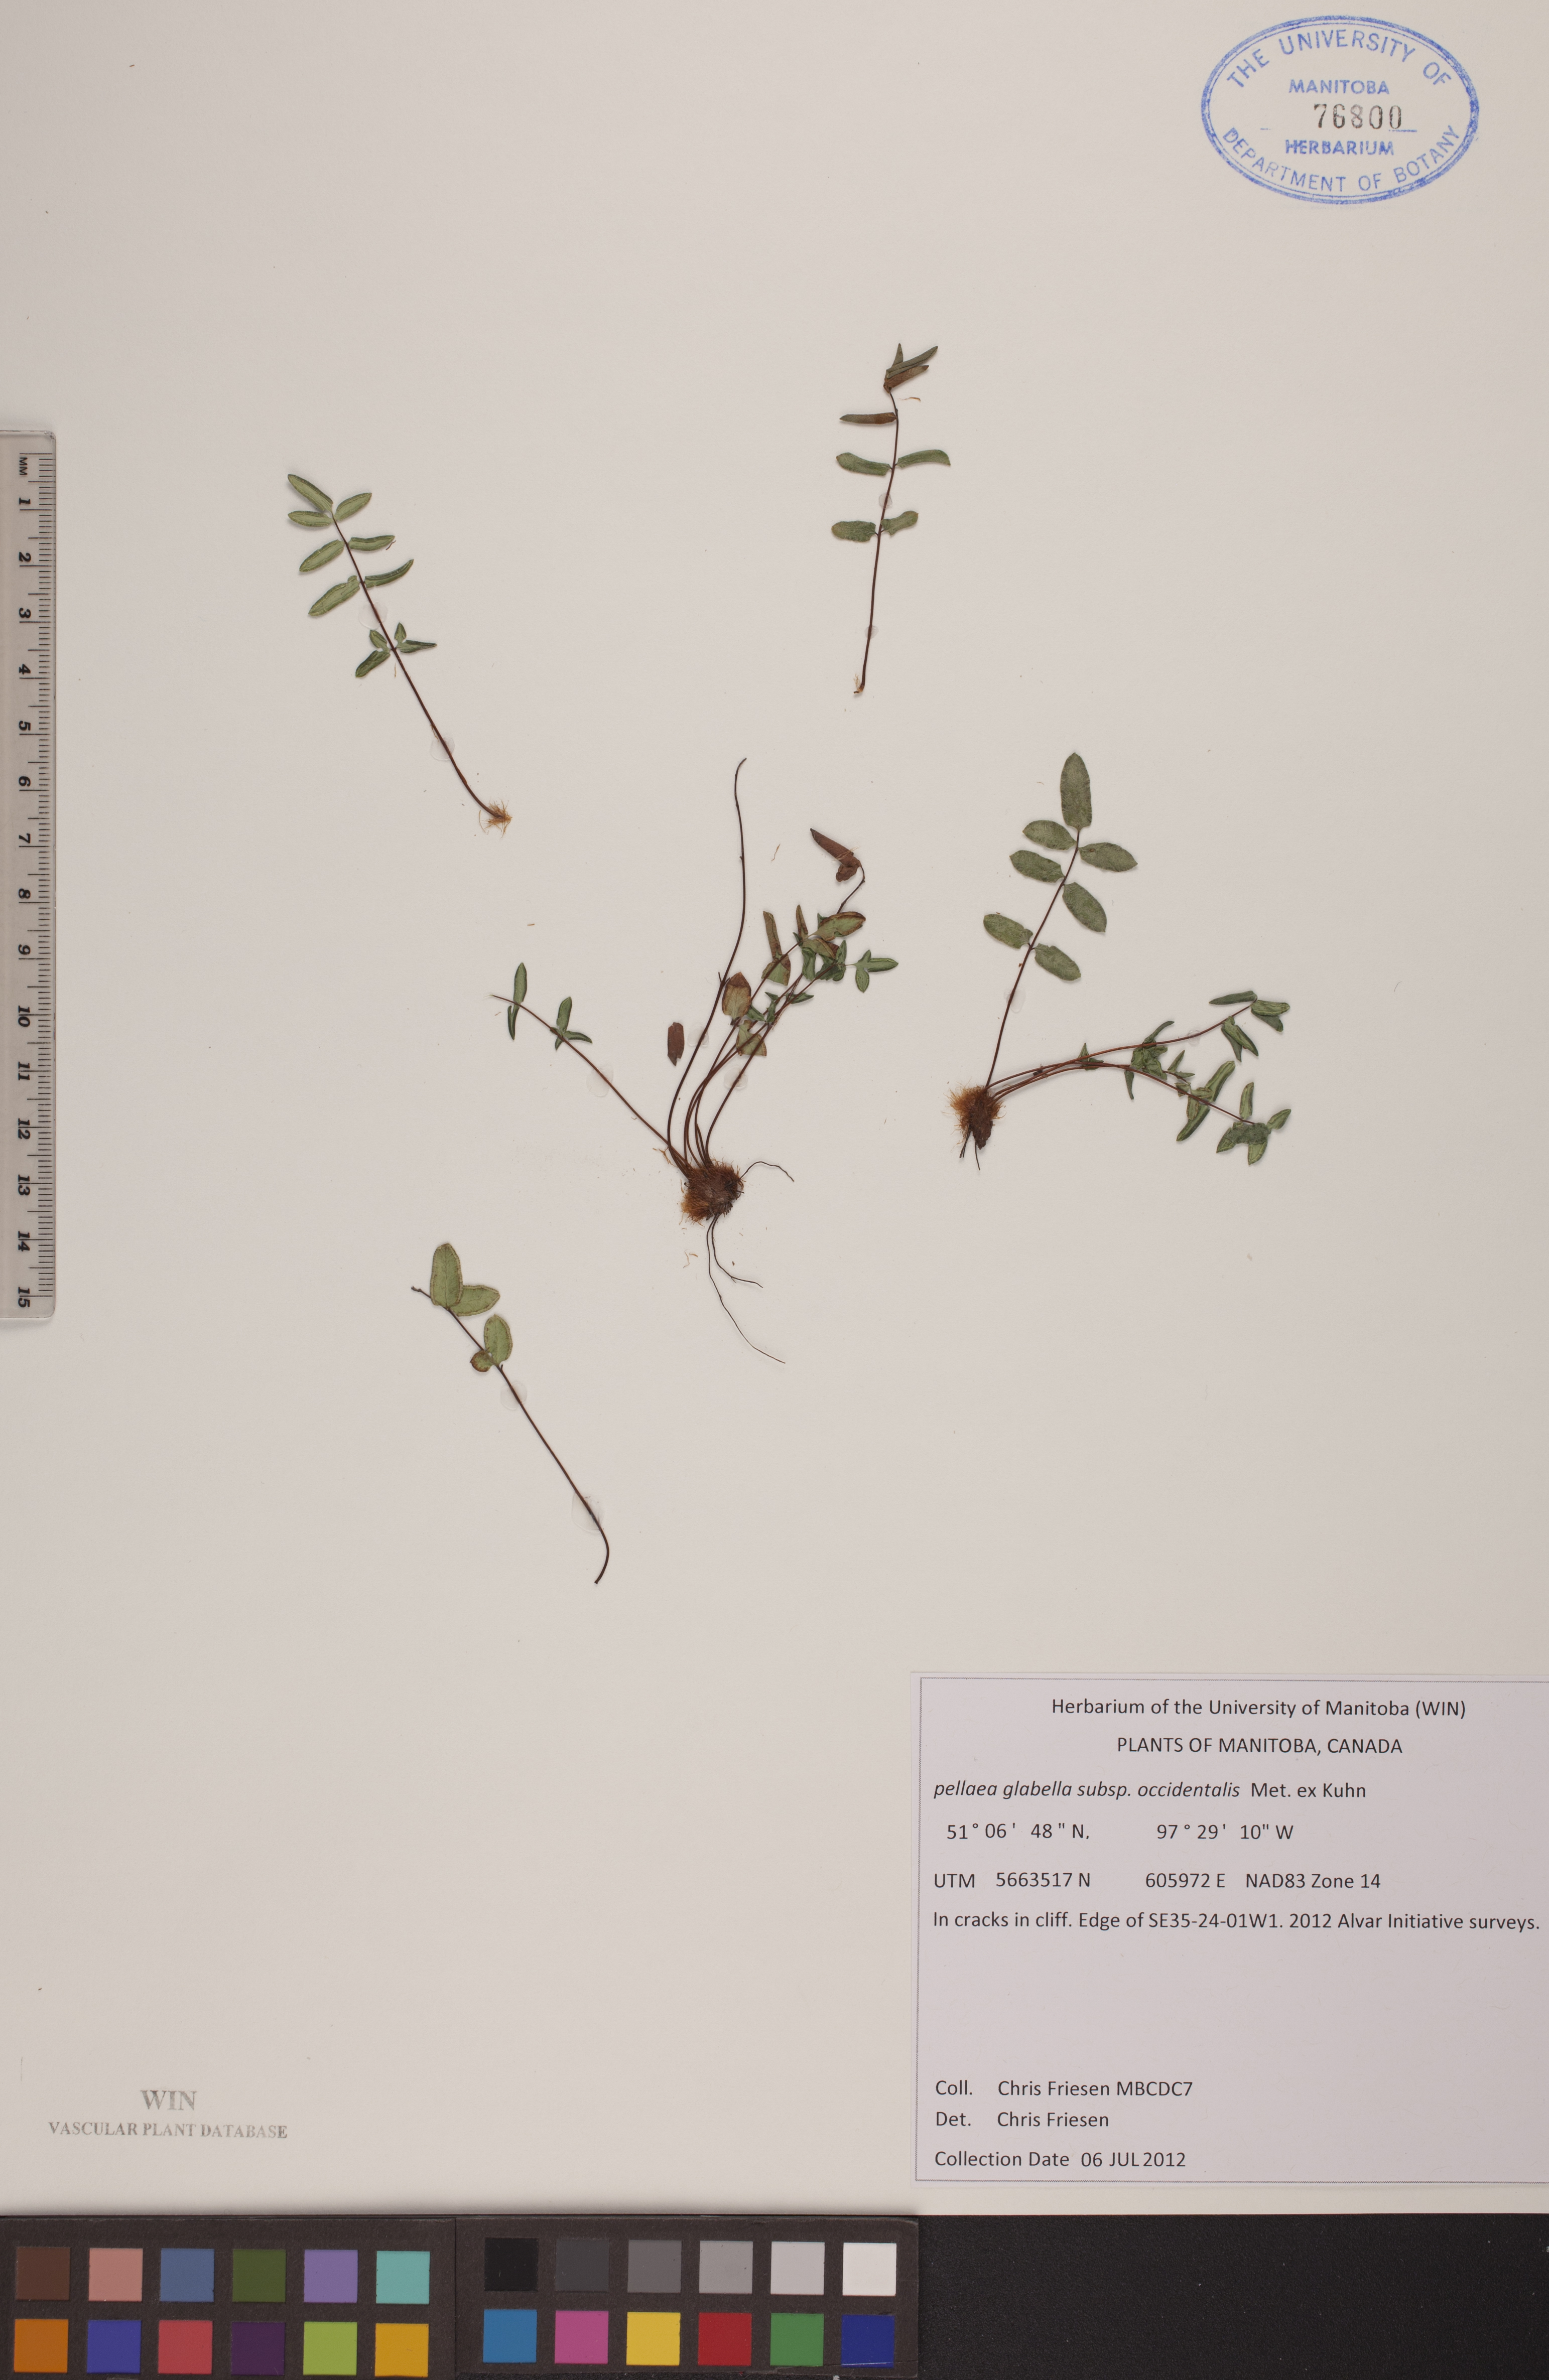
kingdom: Plantae
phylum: Tracheophyta
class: Polypodiopsida
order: Polypodiales
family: Pteridaceae
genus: Pellaea
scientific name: Pellaea glabella
